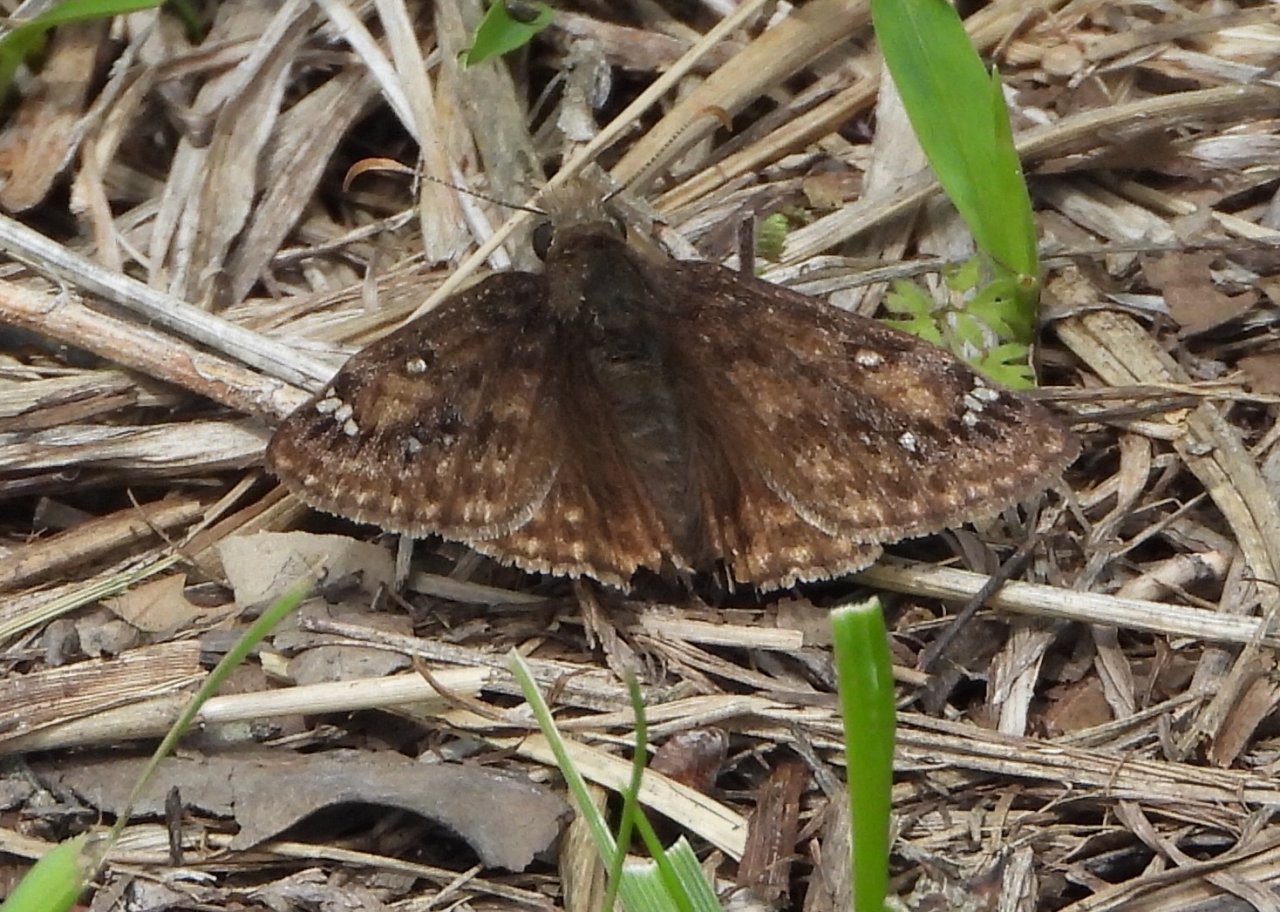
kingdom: Animalia
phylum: Arthropoda
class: Insecta
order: Lepidoptera
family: Hesperiidae
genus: Gesta
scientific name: Gesta
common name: Horace's Duskywing
